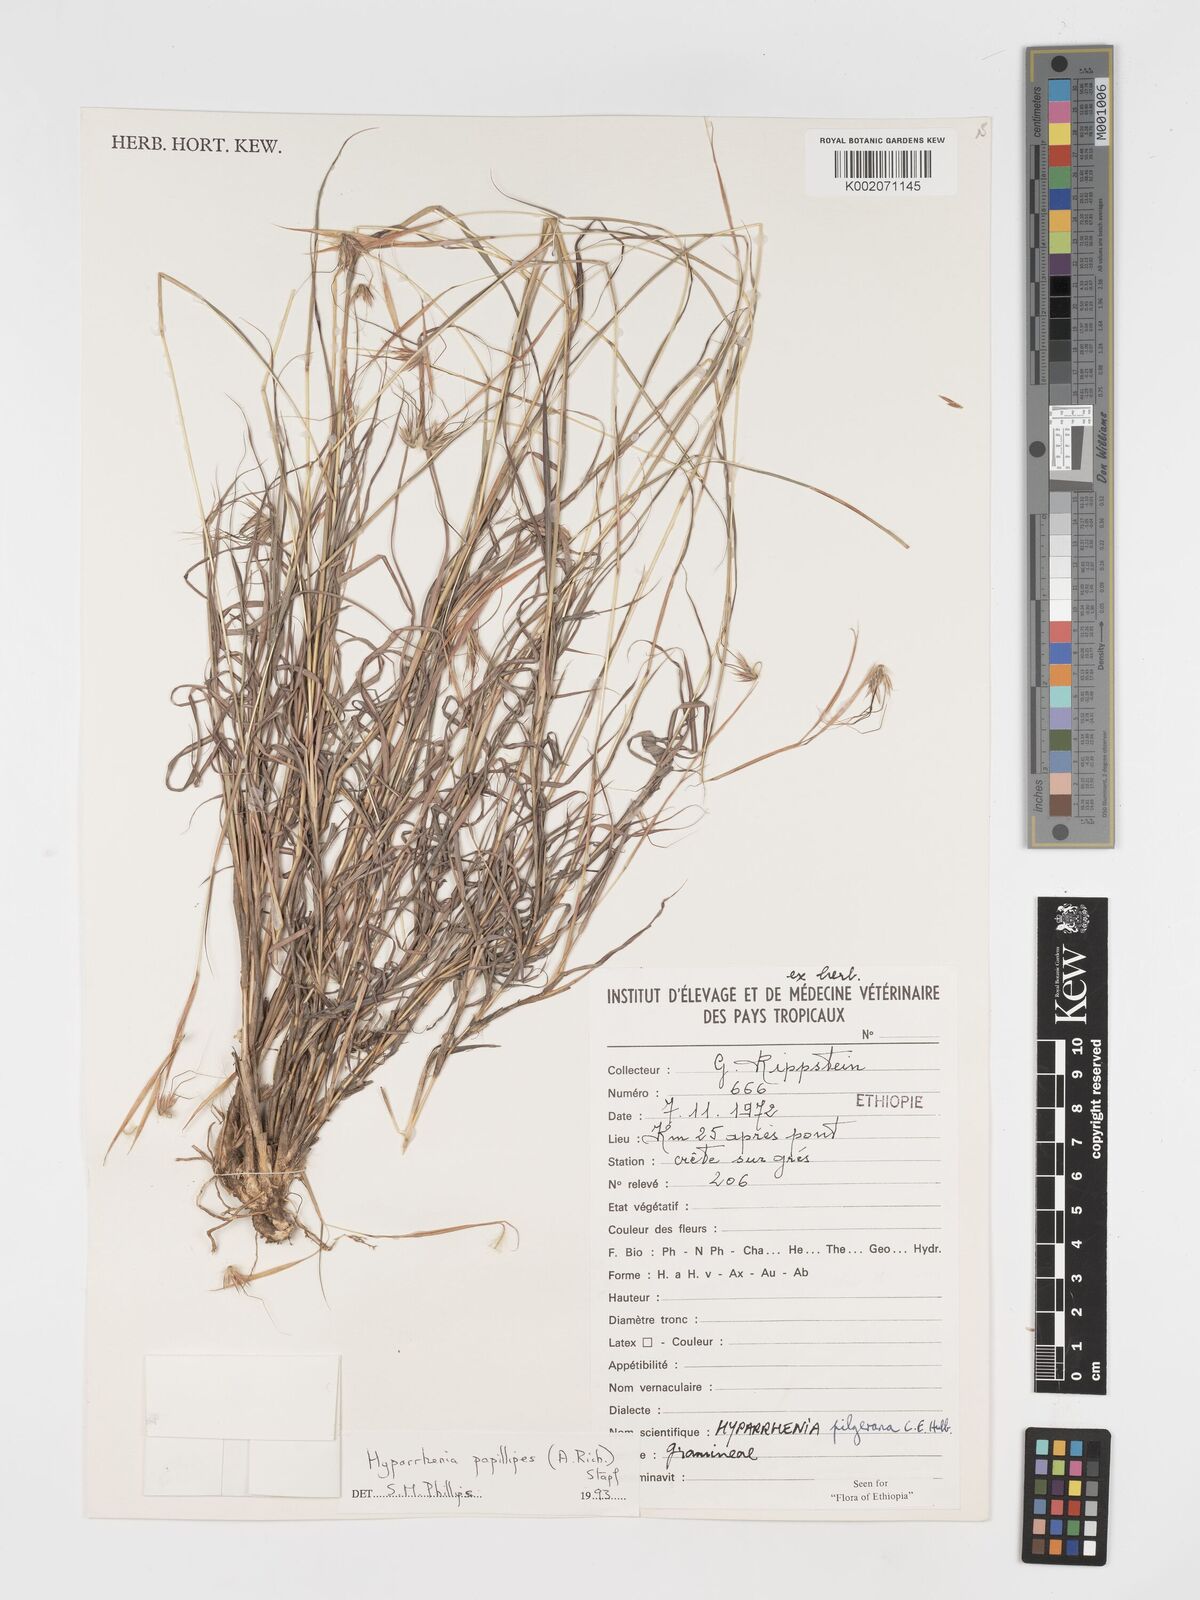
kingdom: Plantae
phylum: Tracheophyta
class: Liliopsida
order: Poales
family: Poaceae
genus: Hyparrhenia
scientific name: Hyparrhenia papillipes
